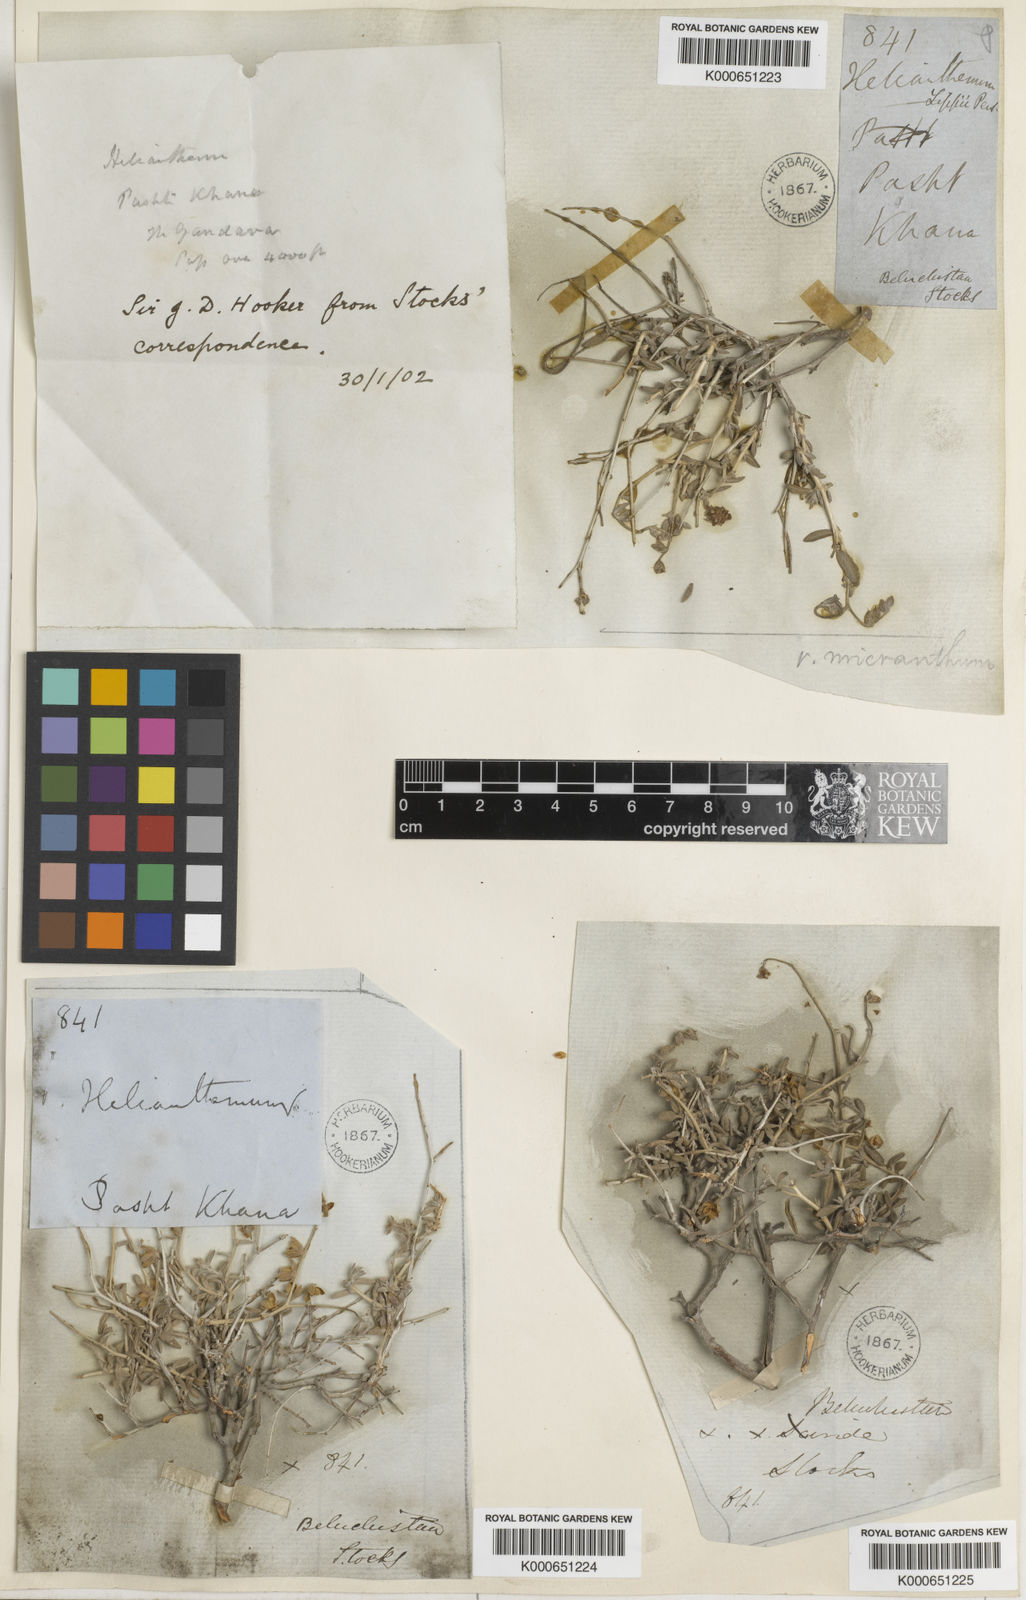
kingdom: Plantae
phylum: Tracheophyta
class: Magnoliopsida
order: Malvales
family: Cistaceae
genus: Helianthemum
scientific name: Helianthemum
